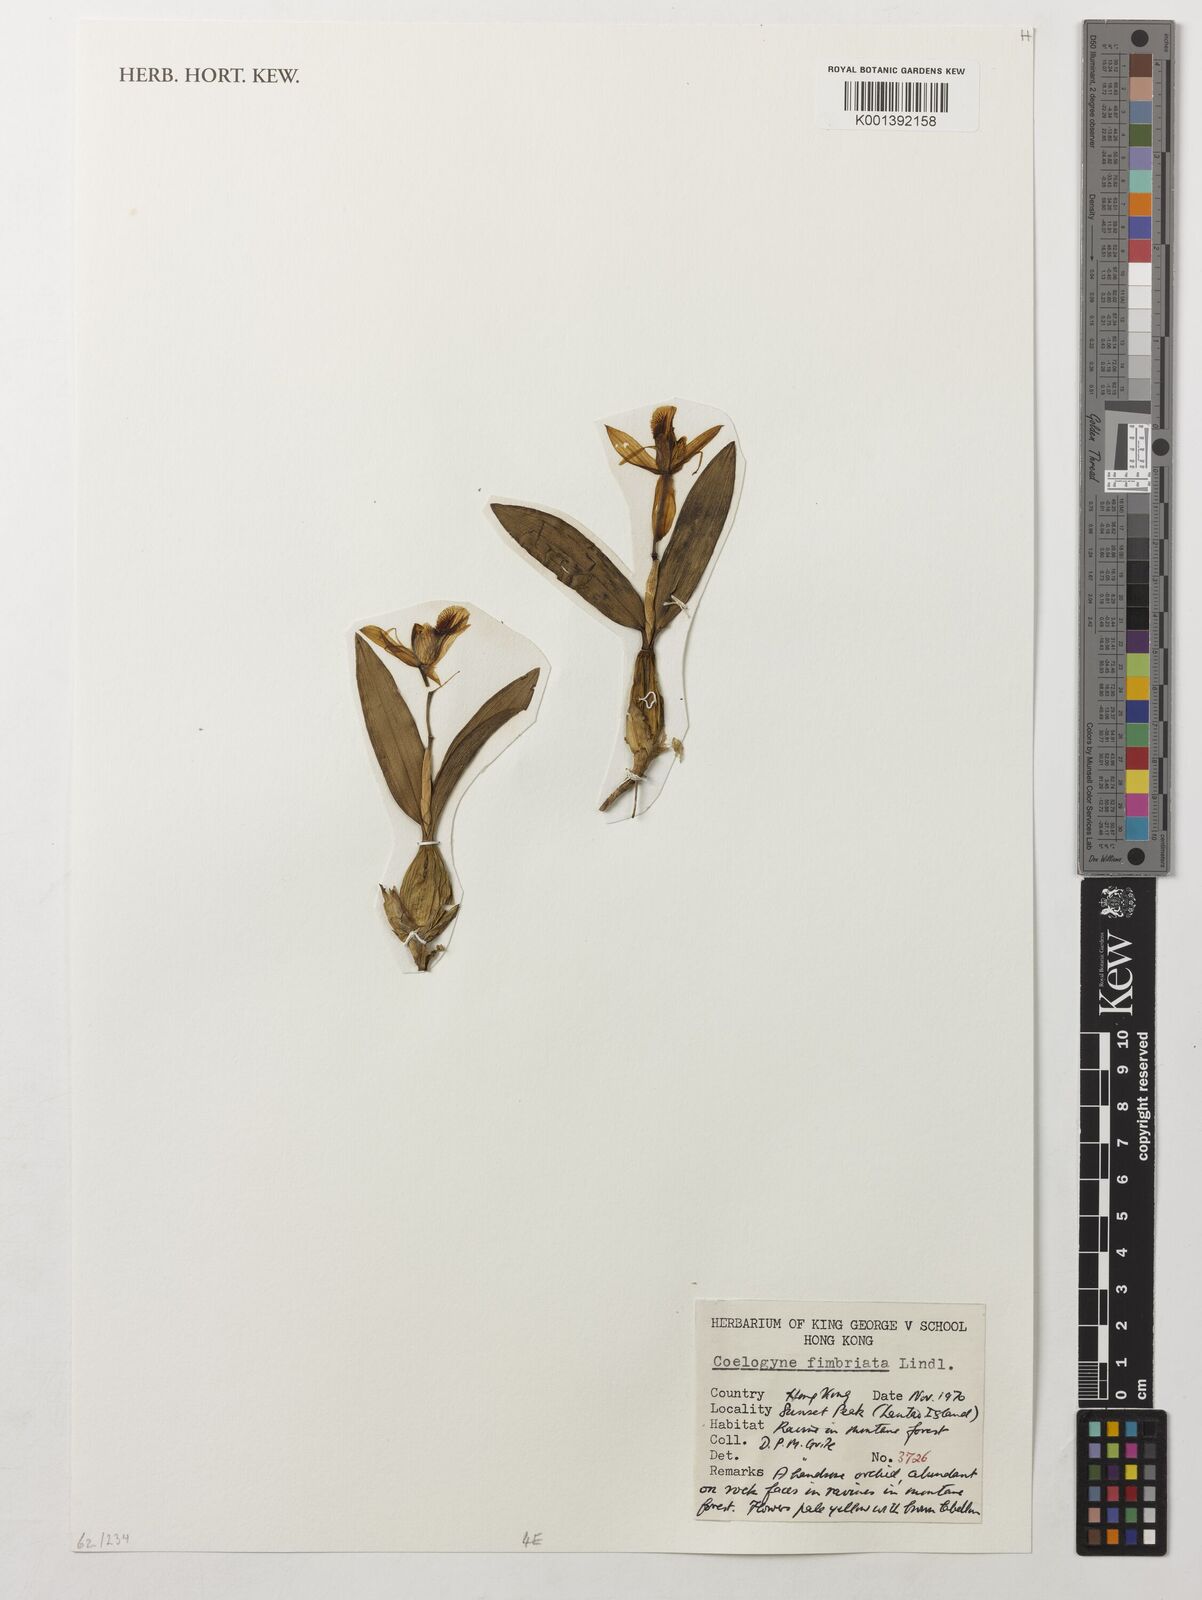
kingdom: Plantae
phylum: Tracheophyta
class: Liliopsida
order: Asparagales
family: Orchidaceae
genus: Coelogyne
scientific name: Coelogyne fimbriata
